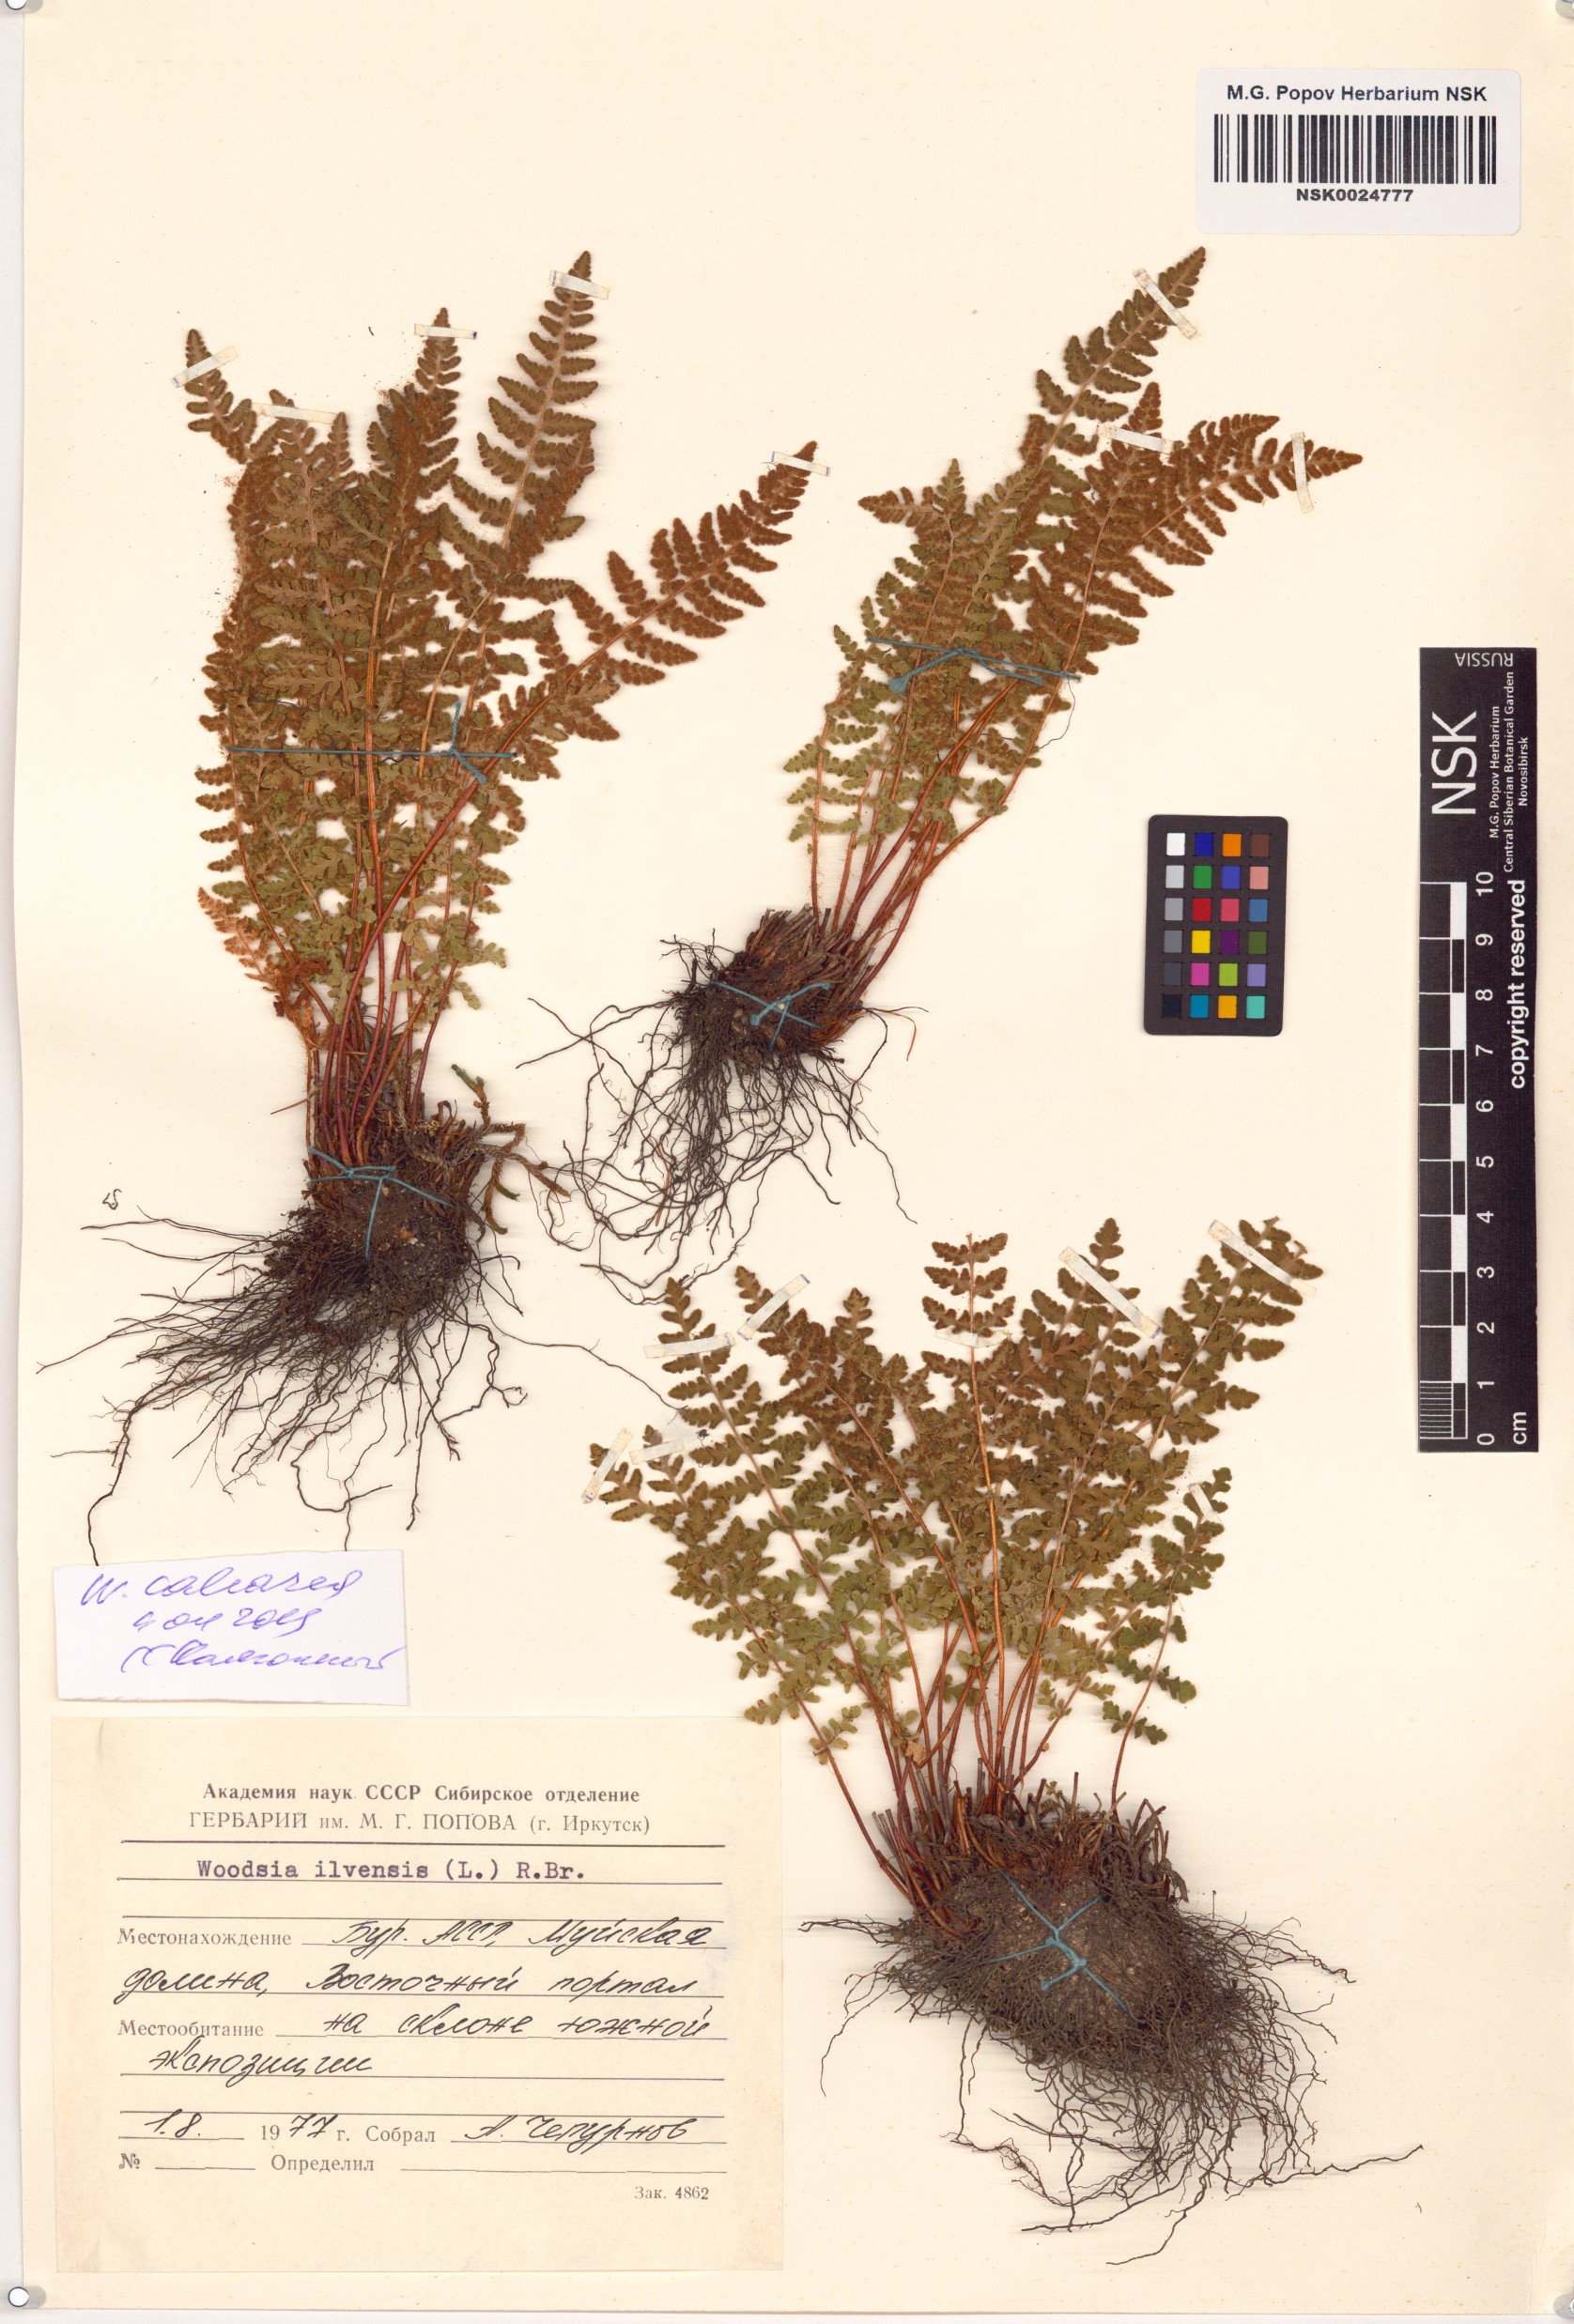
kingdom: Plantae
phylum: Tracheophyta
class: Polypodiopsida
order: Polypodiales
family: Woodsiaceae
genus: Woodsia
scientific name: Woodsia calcarea
